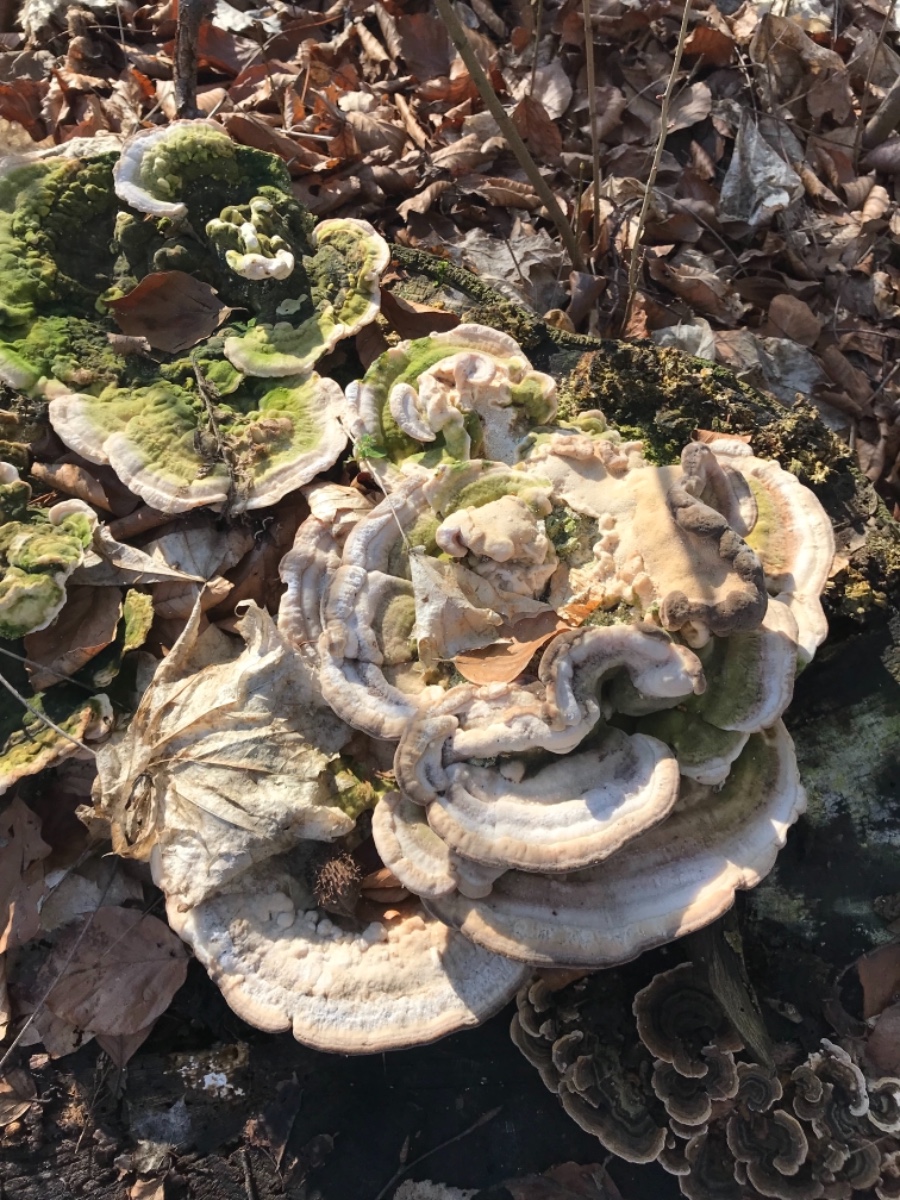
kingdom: Fungi
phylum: Basidiomycota
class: Agaricomycetes
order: Polyporales
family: Polyporaceae
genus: Trametes
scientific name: Trametes gibbosa
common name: puklet læderporesvamp
